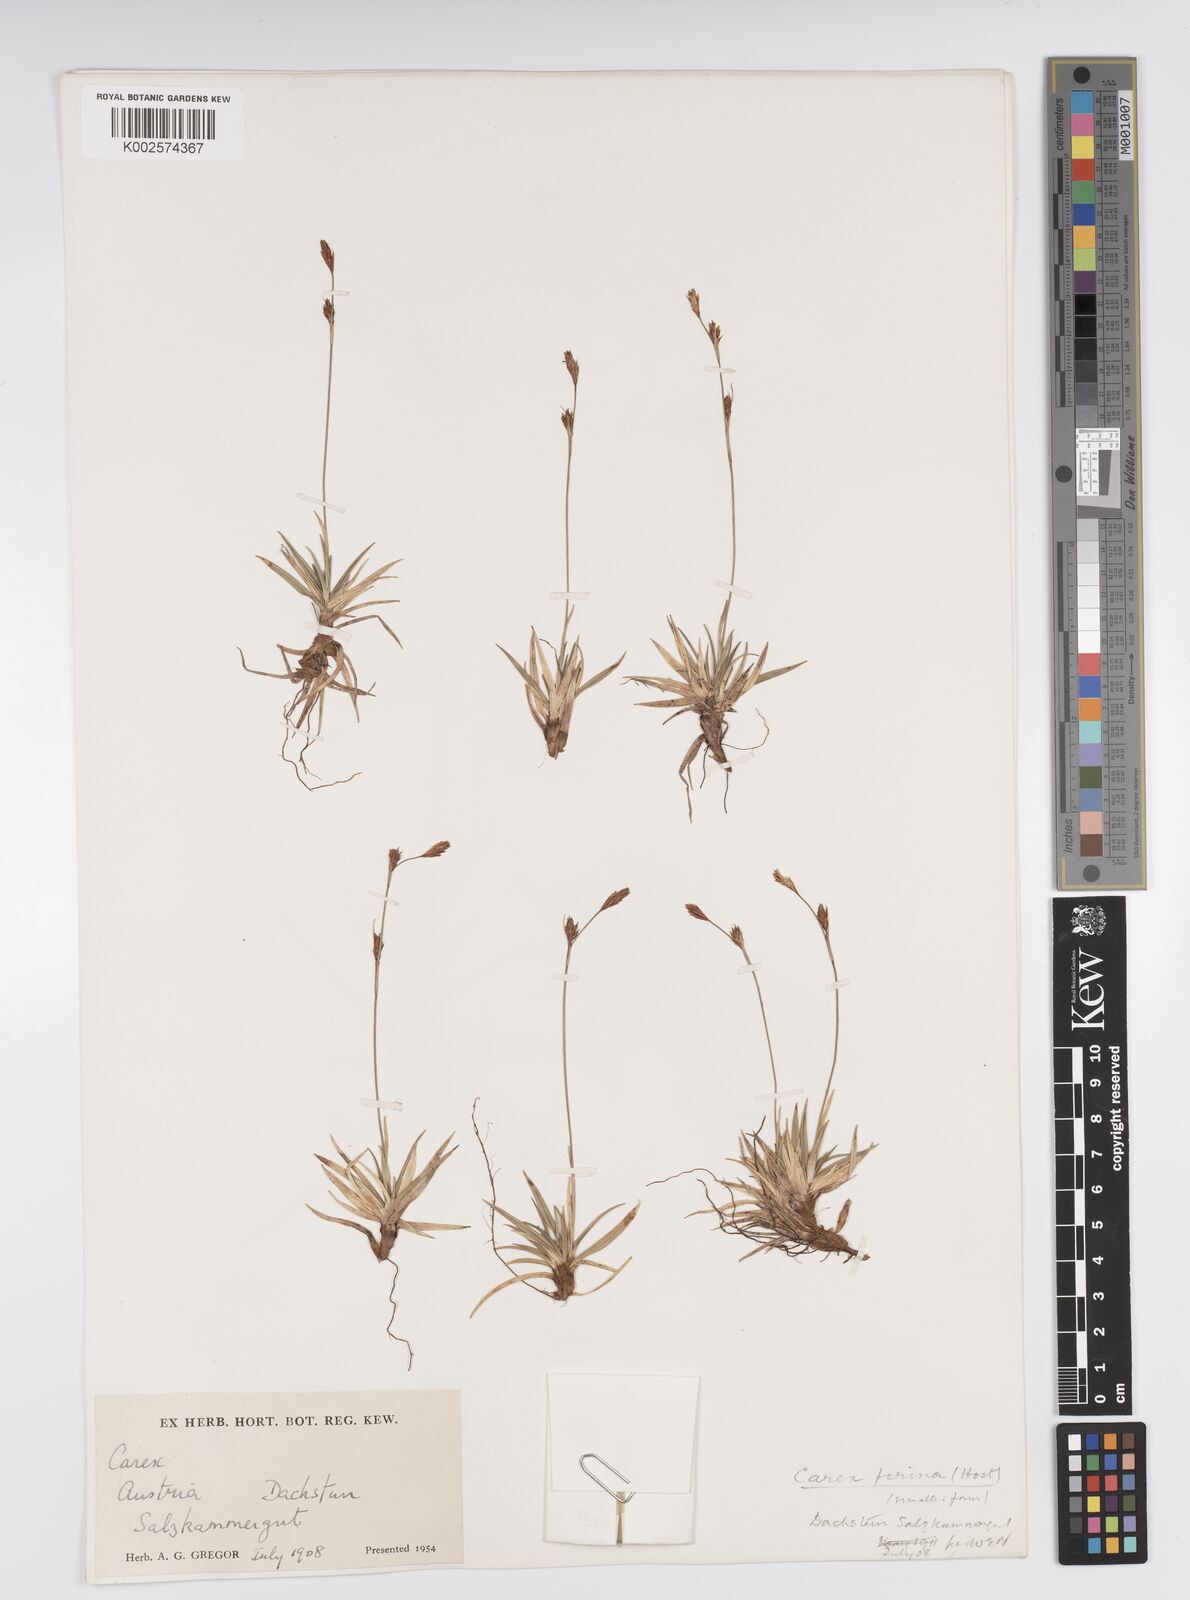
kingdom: Plantae
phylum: Tracheophyta
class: Liliopsida
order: Poales
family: Cyperaceae
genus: Carex
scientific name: Carex firma
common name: Dwarf pillow sedge
